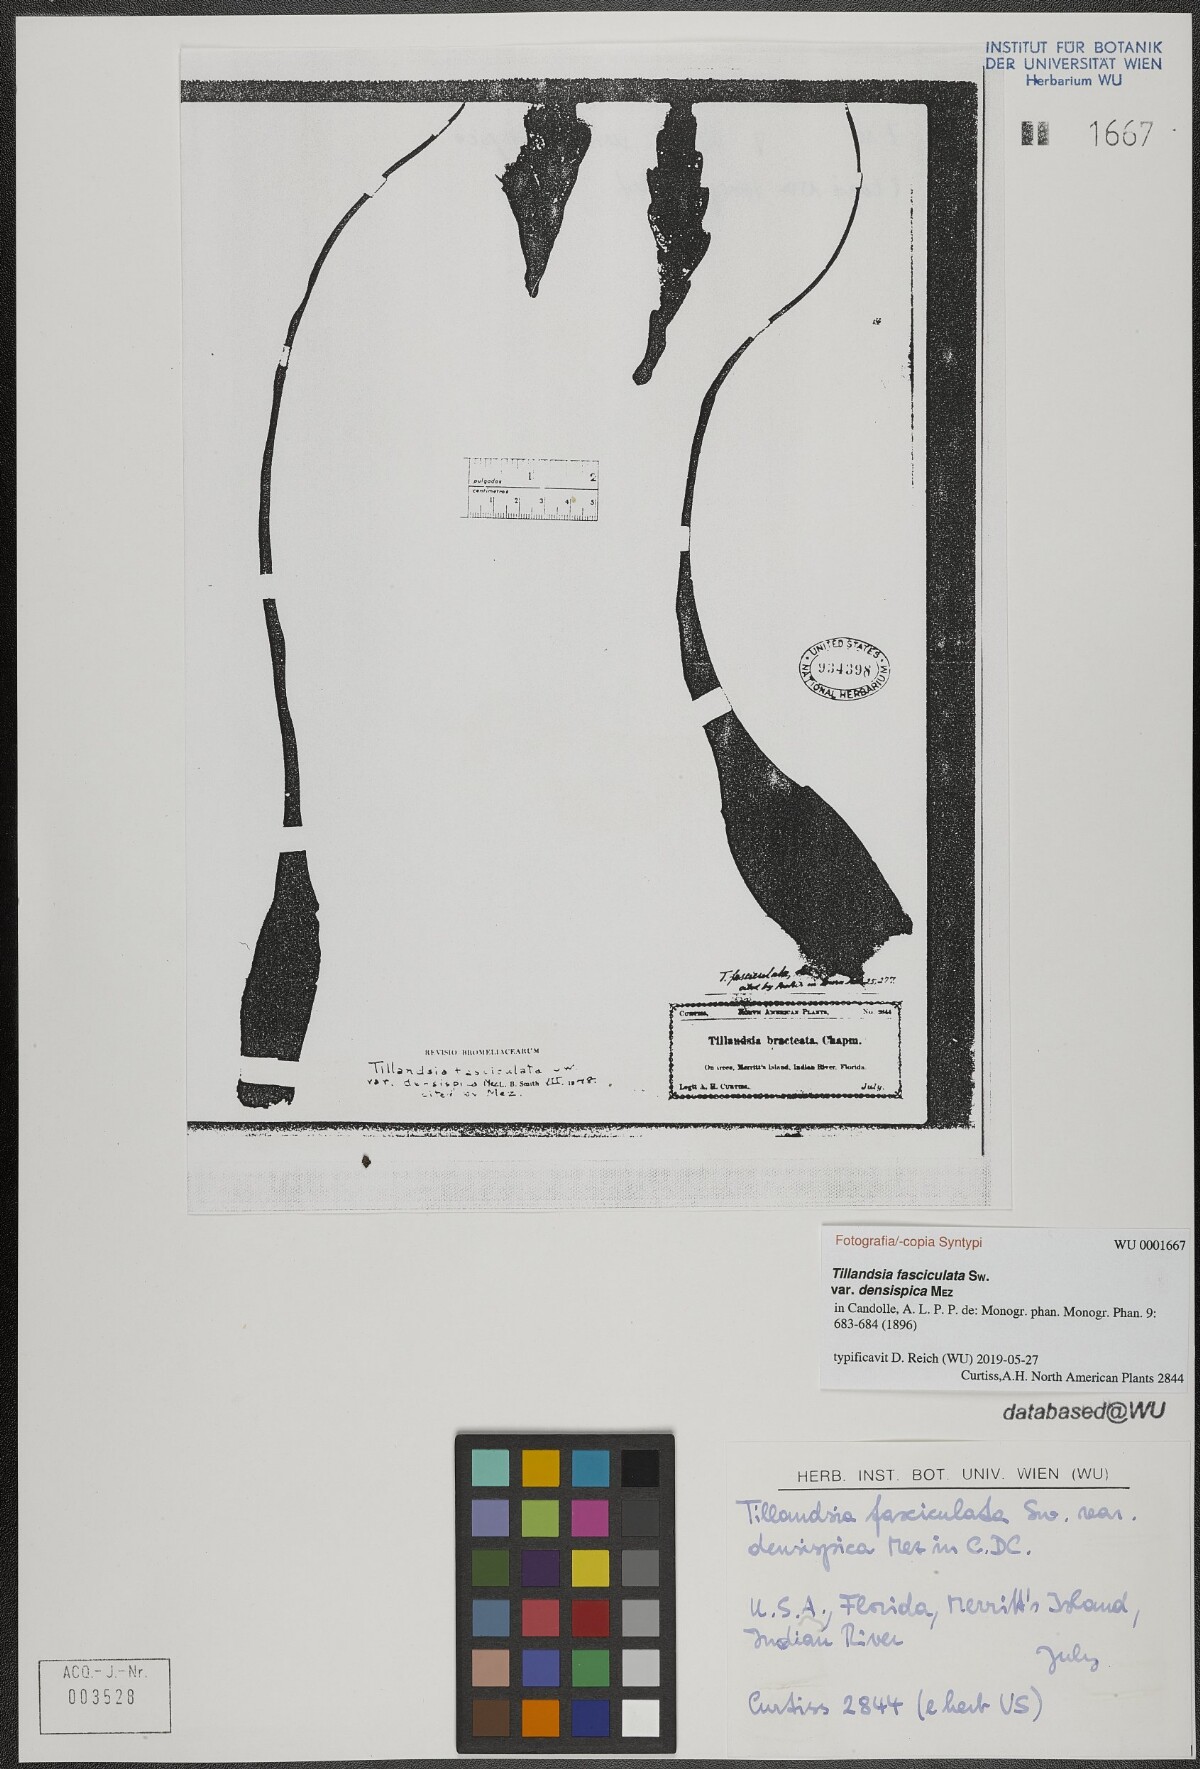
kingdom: Plantae
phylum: Tracheophyta
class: Liliopsida
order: Poales
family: Bromeliaceae
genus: Tillandsia
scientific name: Tillandsia fasciculata
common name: Giant airplant
